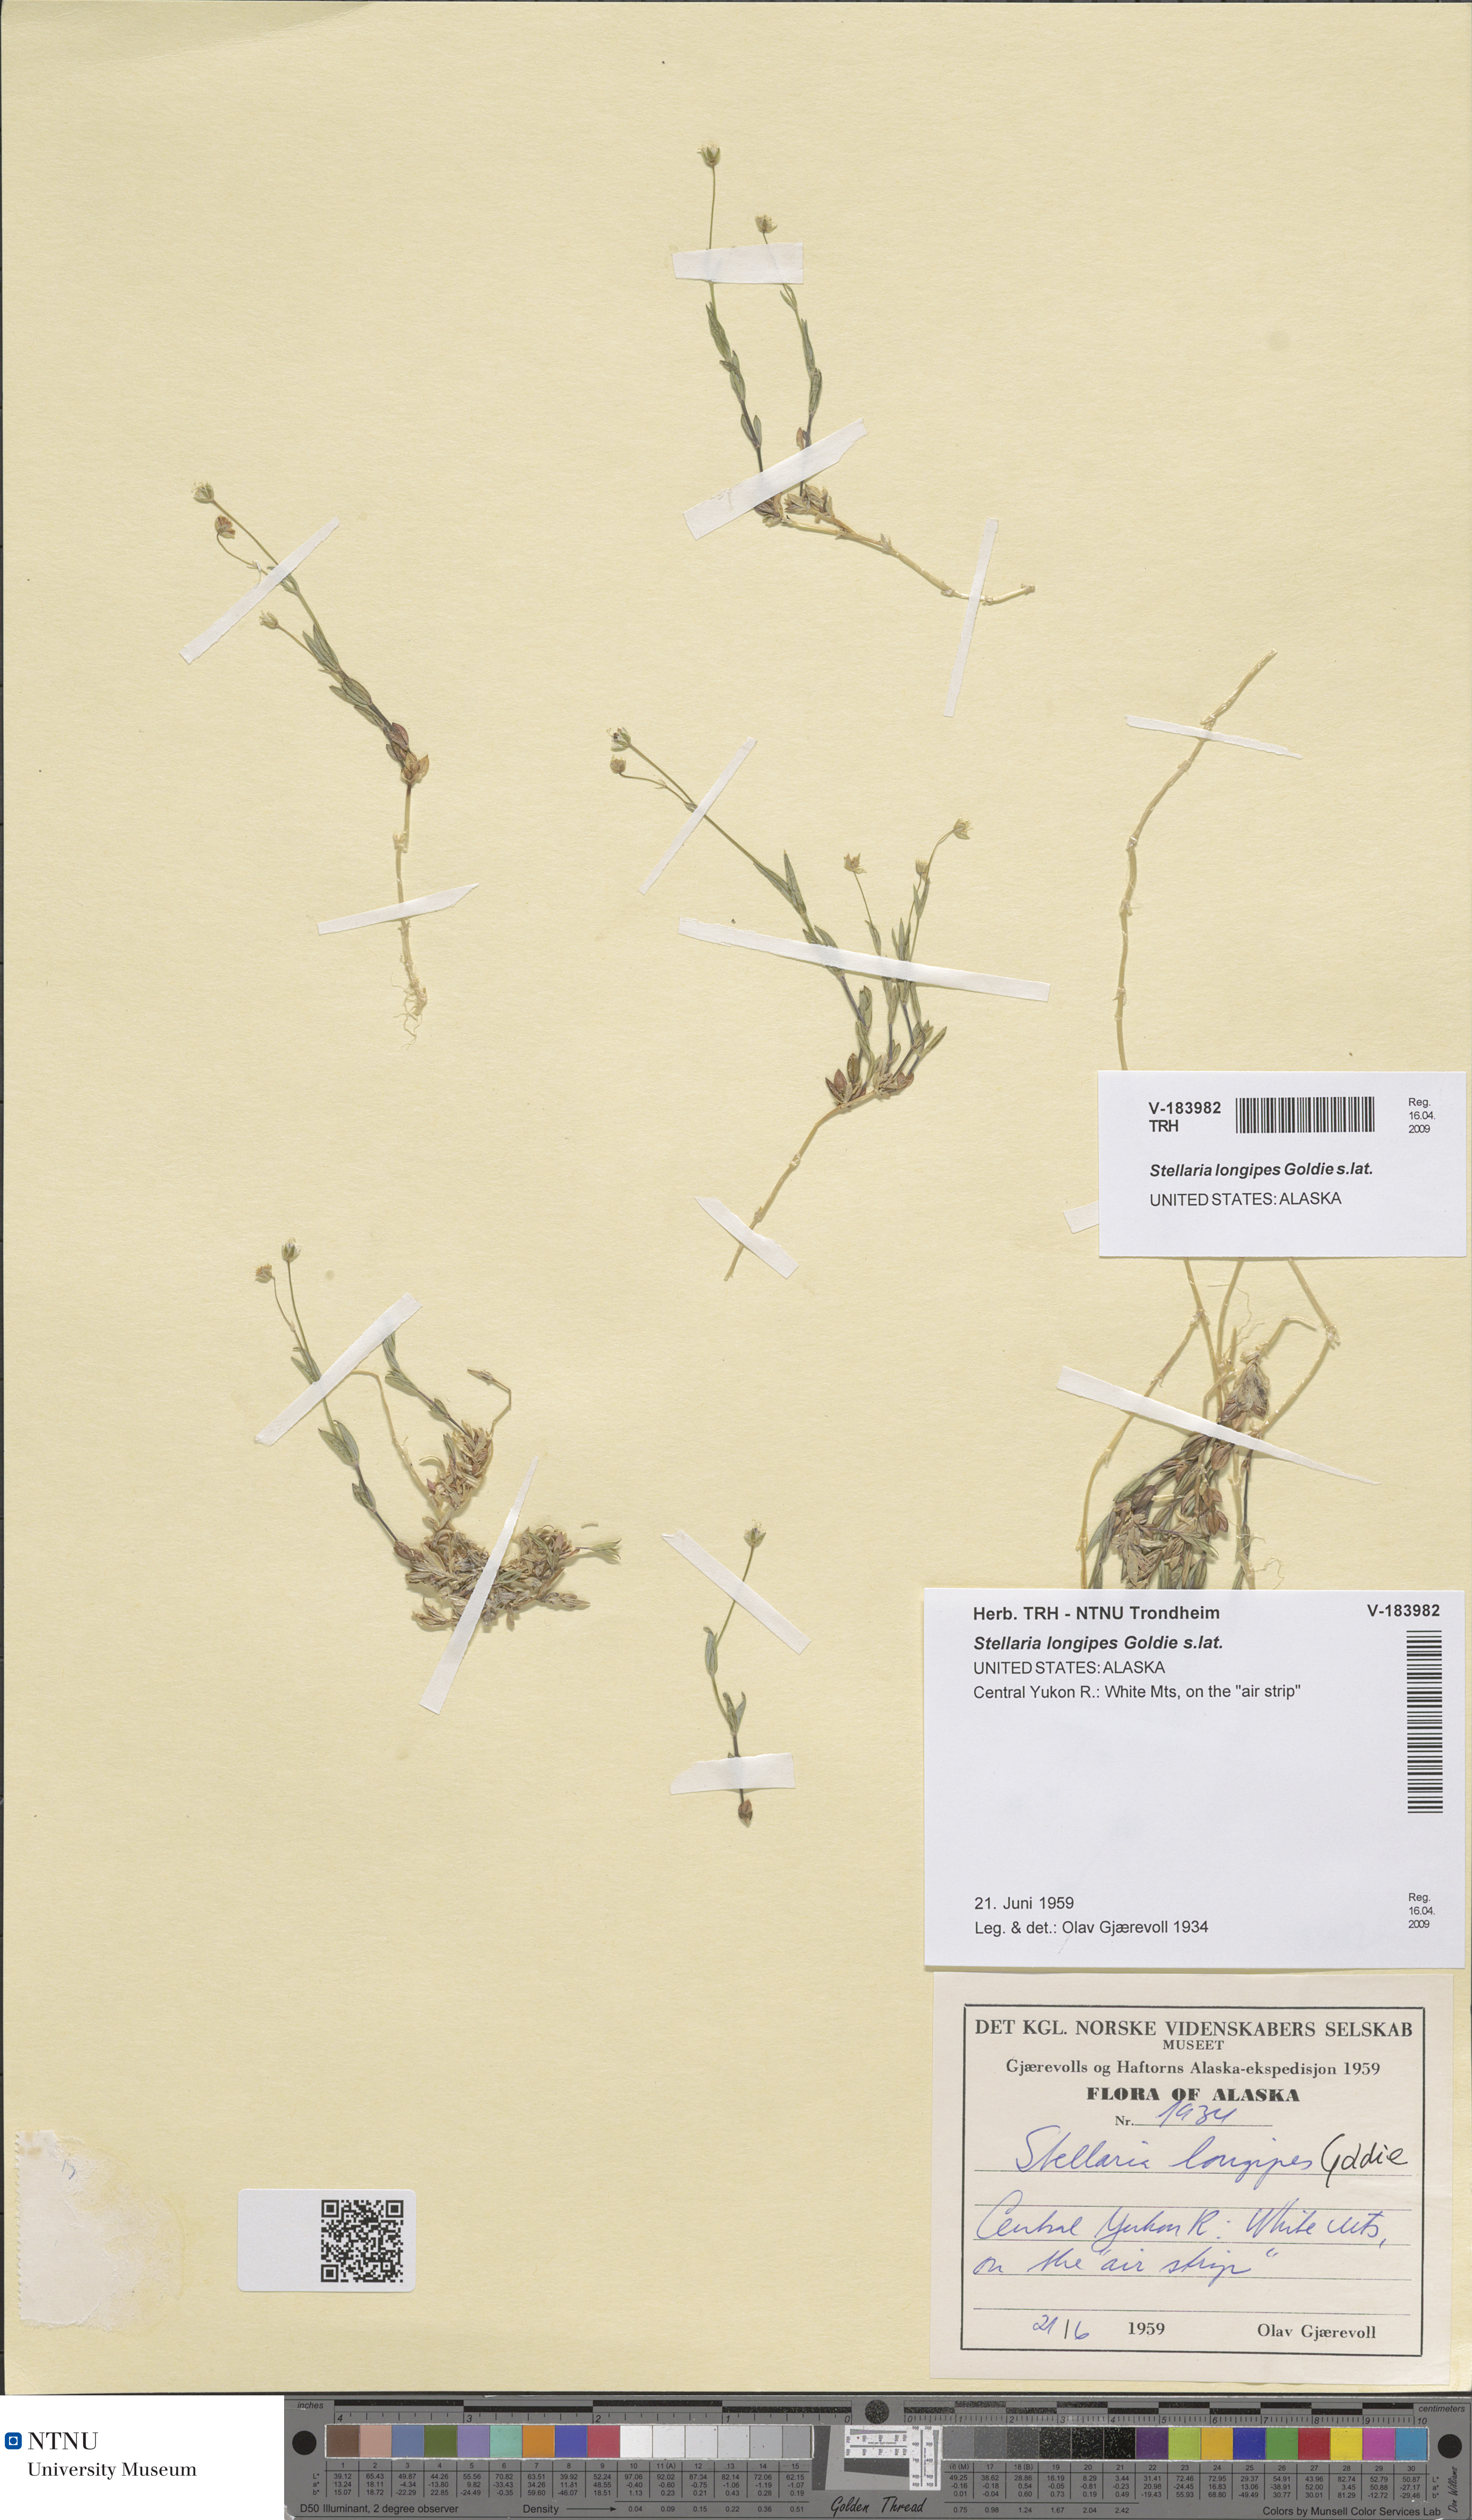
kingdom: Plantae
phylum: Tracheophyta
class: Magnoliopsida
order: Caryophyllales
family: Caryophyllaceae
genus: Stellaria
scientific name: Stellaria longipes
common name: Goldie's starwort
